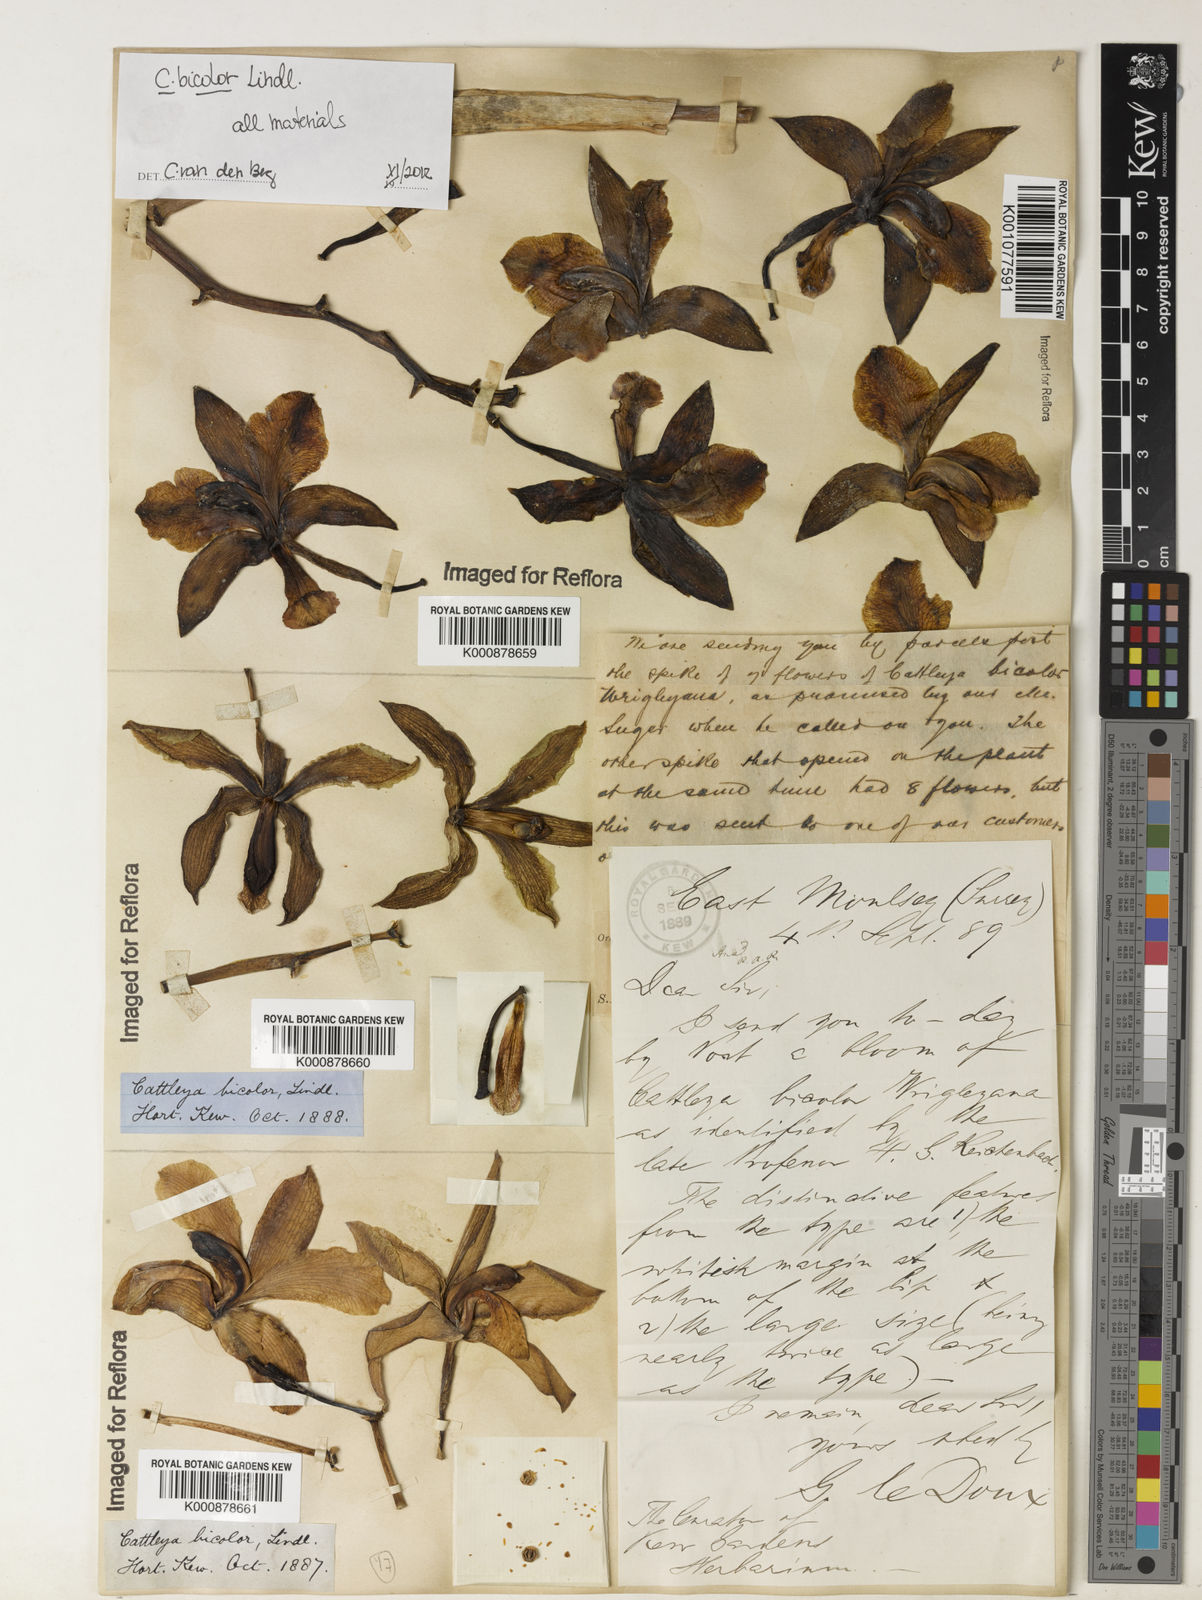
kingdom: Plantae
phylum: Tracheophyta
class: Liliopsida
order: Asparagales
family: Orchidaceae
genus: Cattleya
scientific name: Cattleya bicolor
